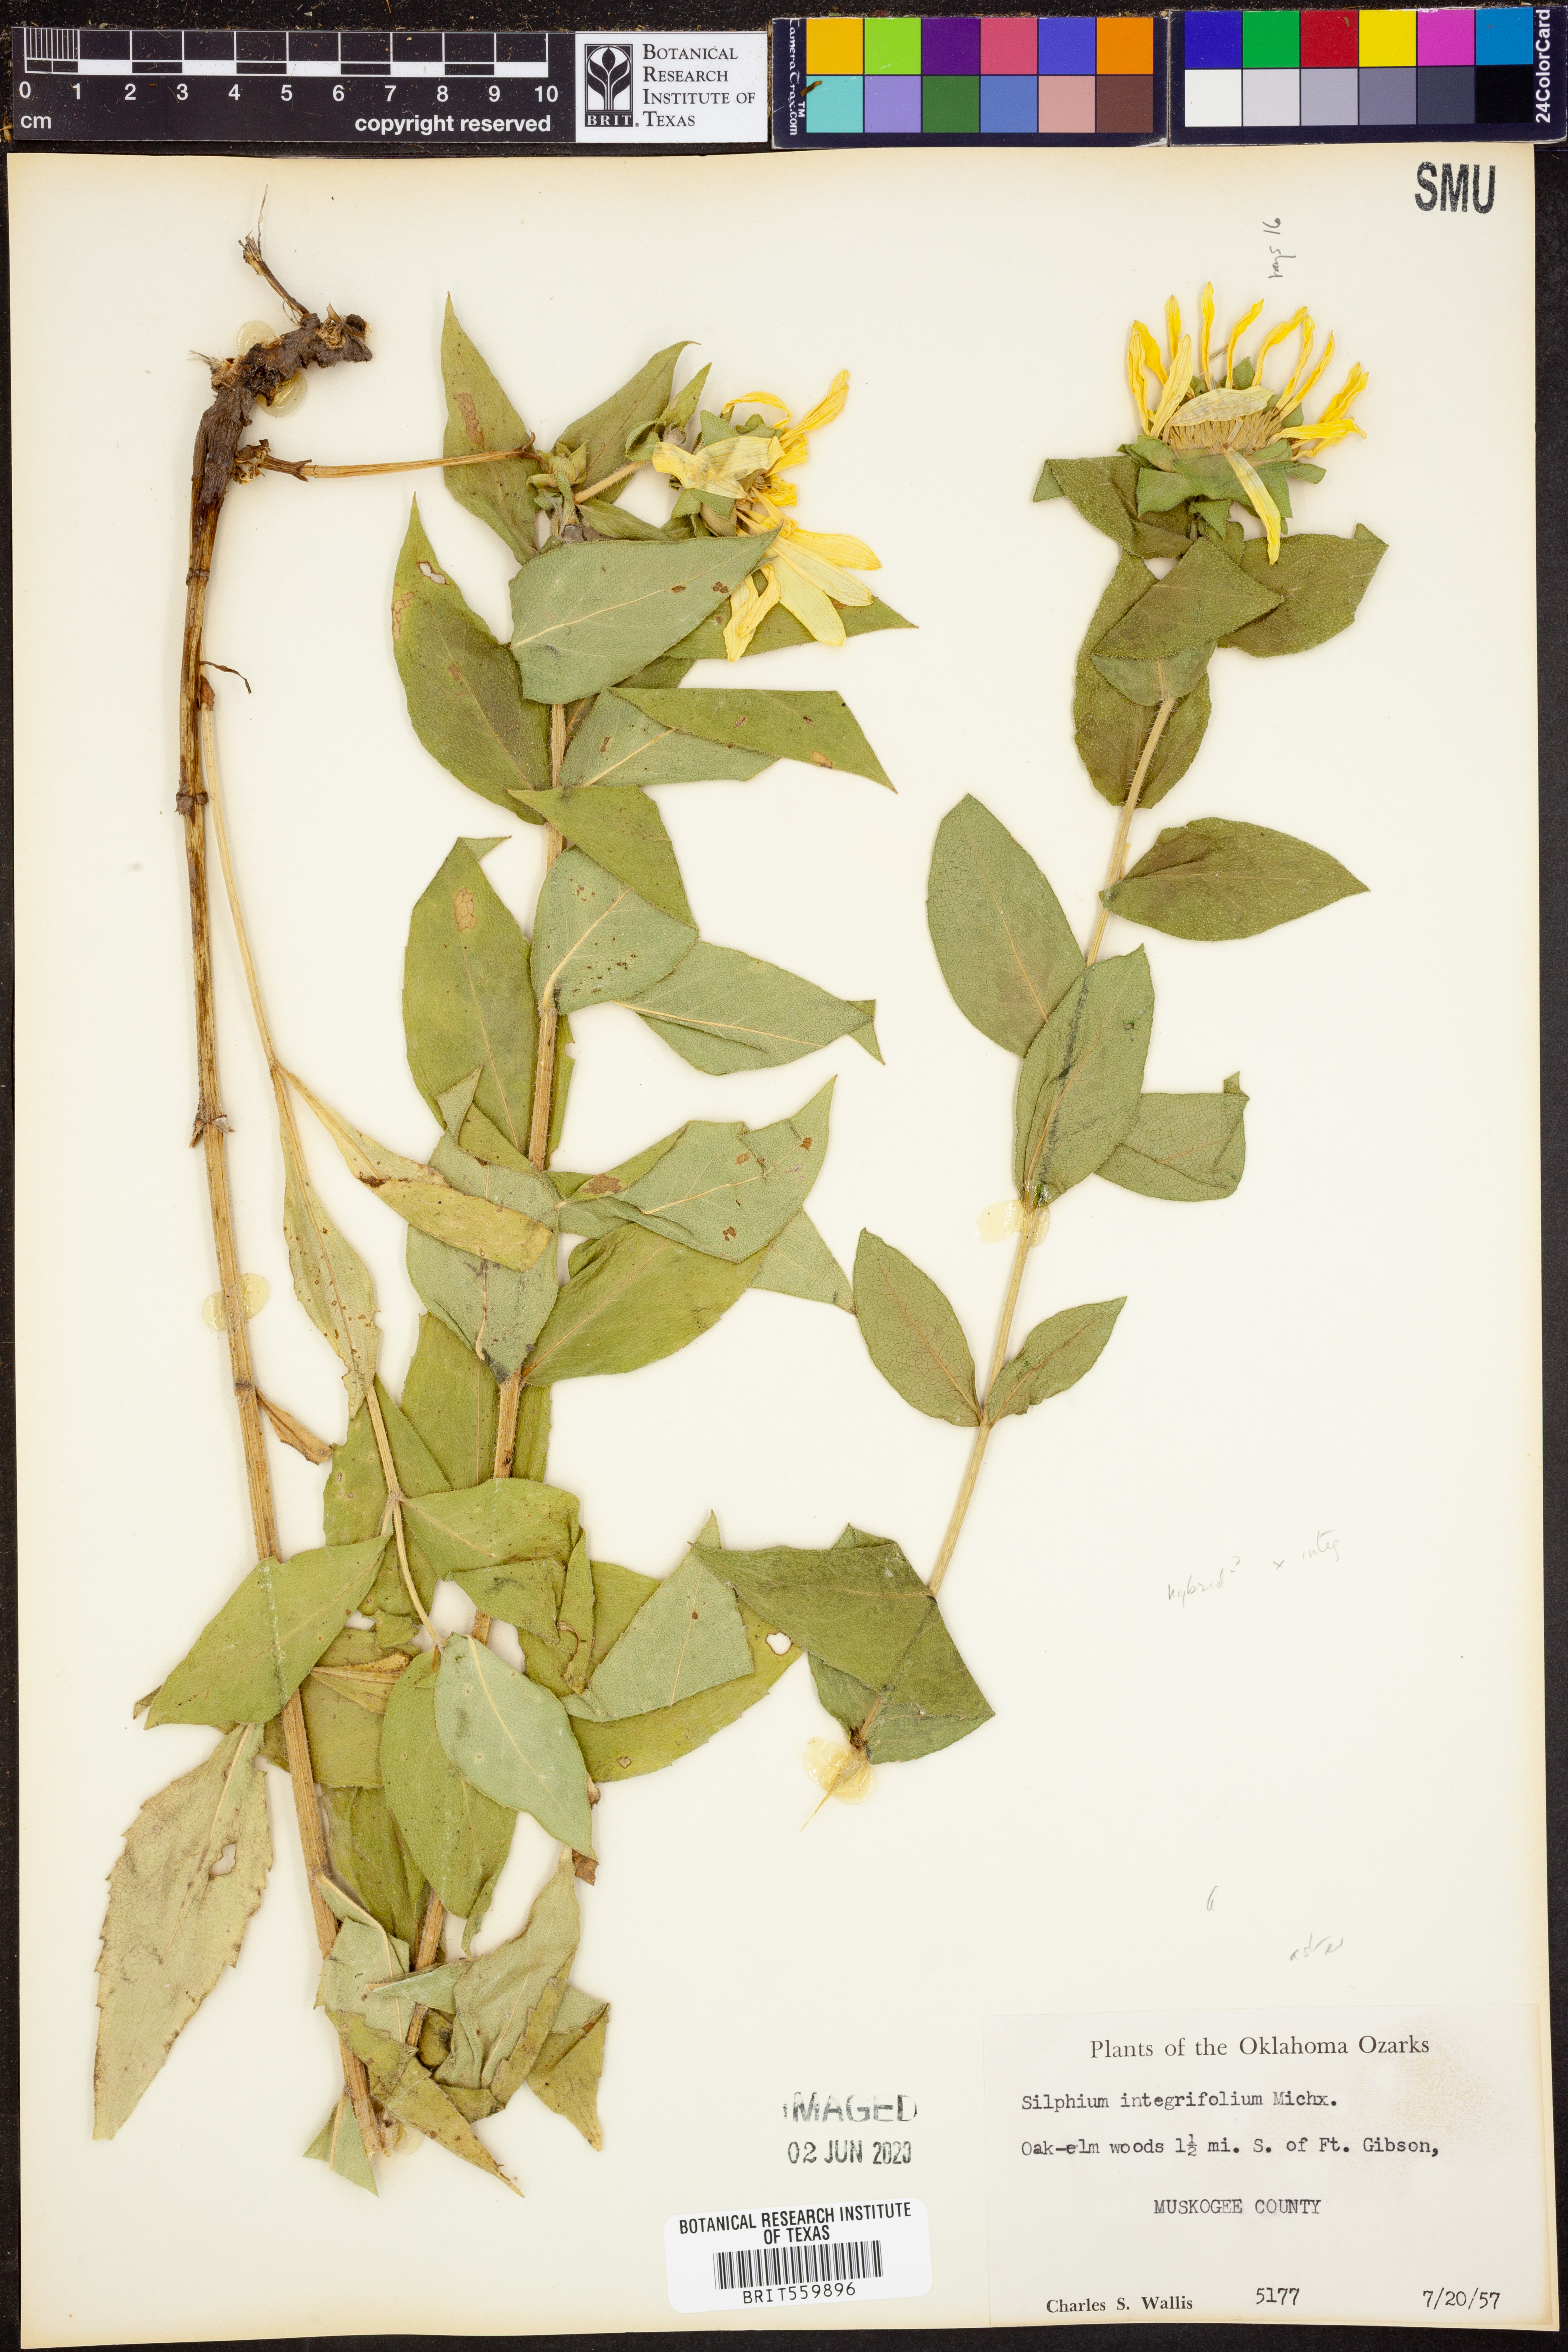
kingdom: Plantae
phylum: Tracheophyta
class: Magnoliopsida
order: Asterales
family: Asteraceae
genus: Silphium
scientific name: Silphium integrifolium
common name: Whole-leaf rosinweed
